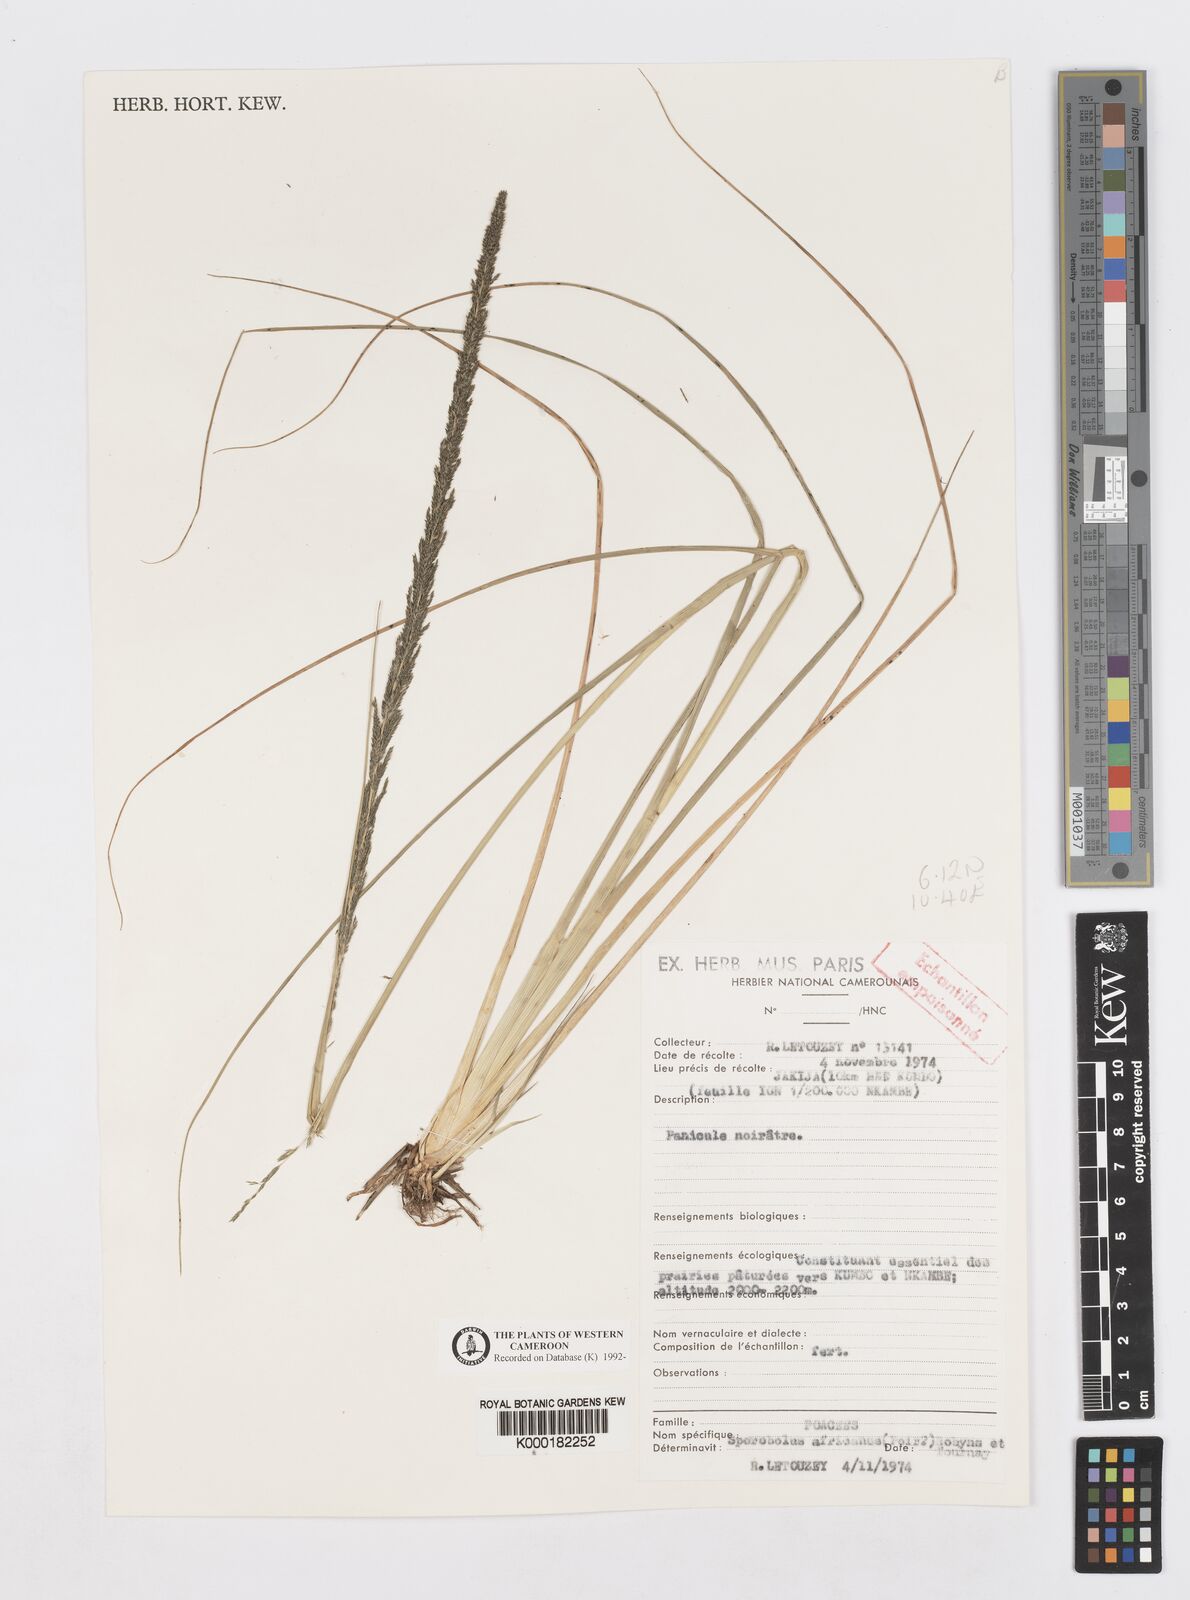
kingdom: Plantae
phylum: Tracheophyta
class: Liliopsida
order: Poales
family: Poaceae
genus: Sporobolus
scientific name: Sporobolus africanus
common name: African dropseed
